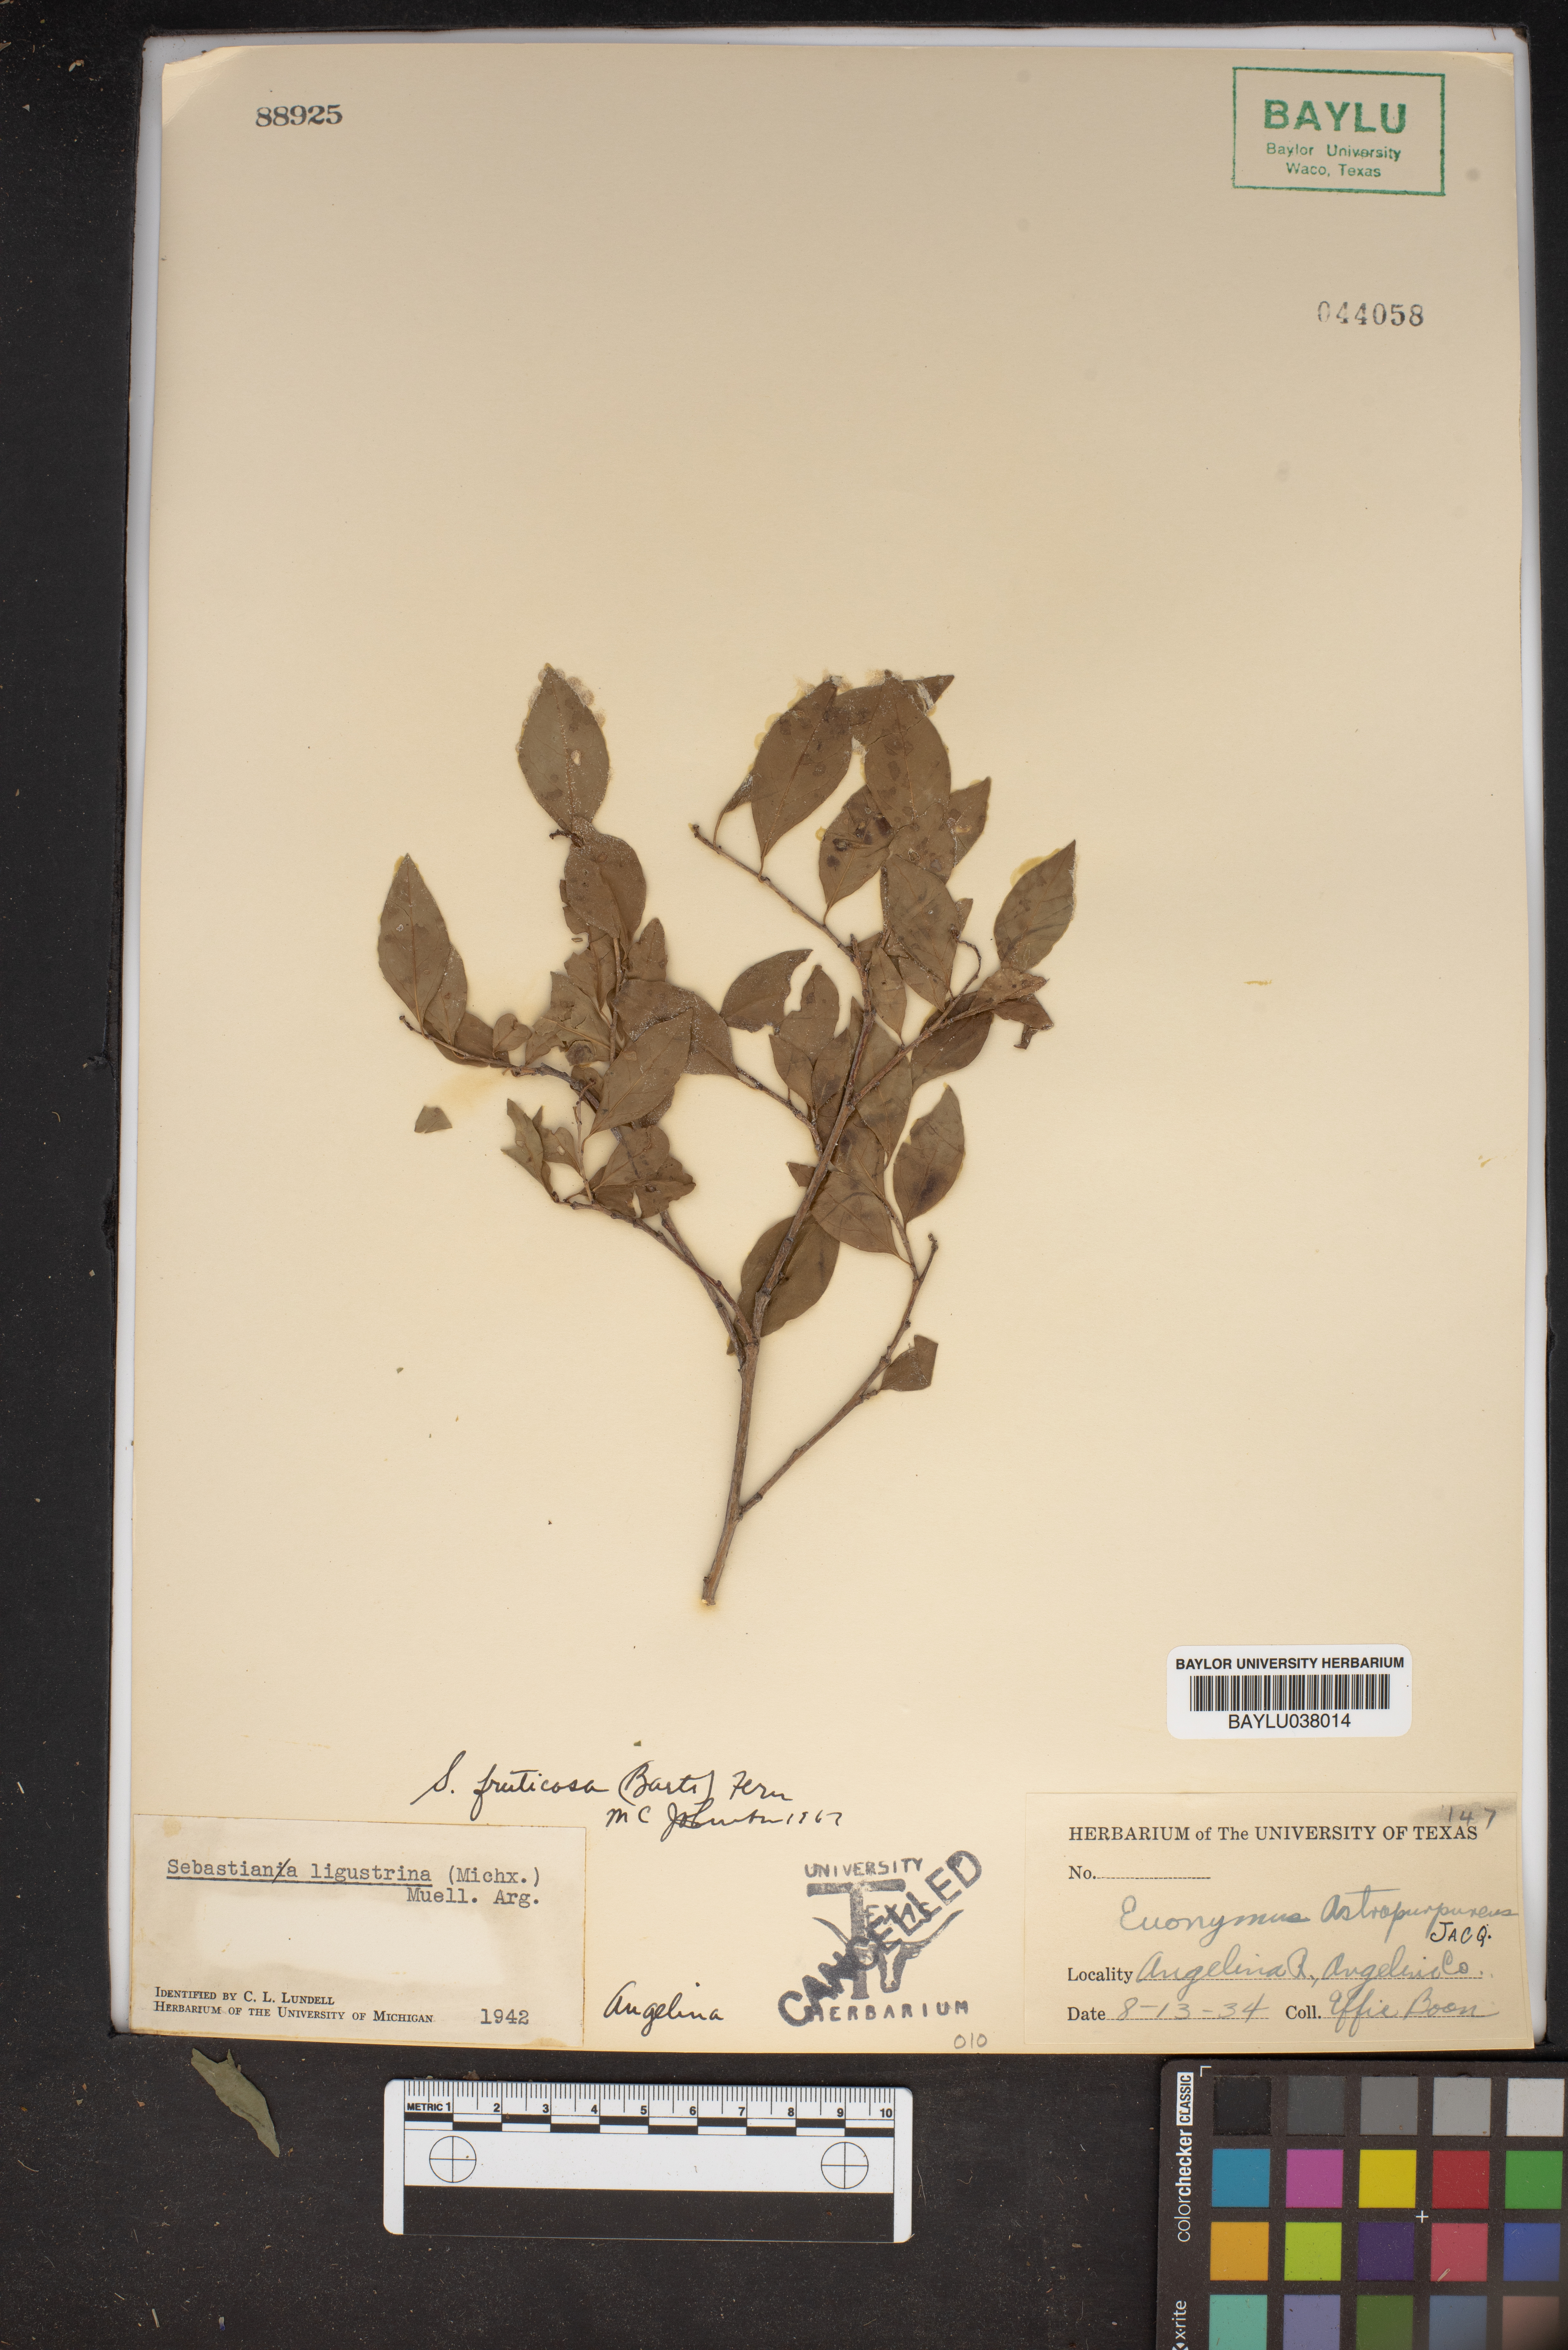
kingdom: Plantae
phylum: Tracheophyta
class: Magnoliopsida
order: Celastrales
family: Celastraceae
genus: Euonymus
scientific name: Euonymus atropurpureus
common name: Eastern wahoo
